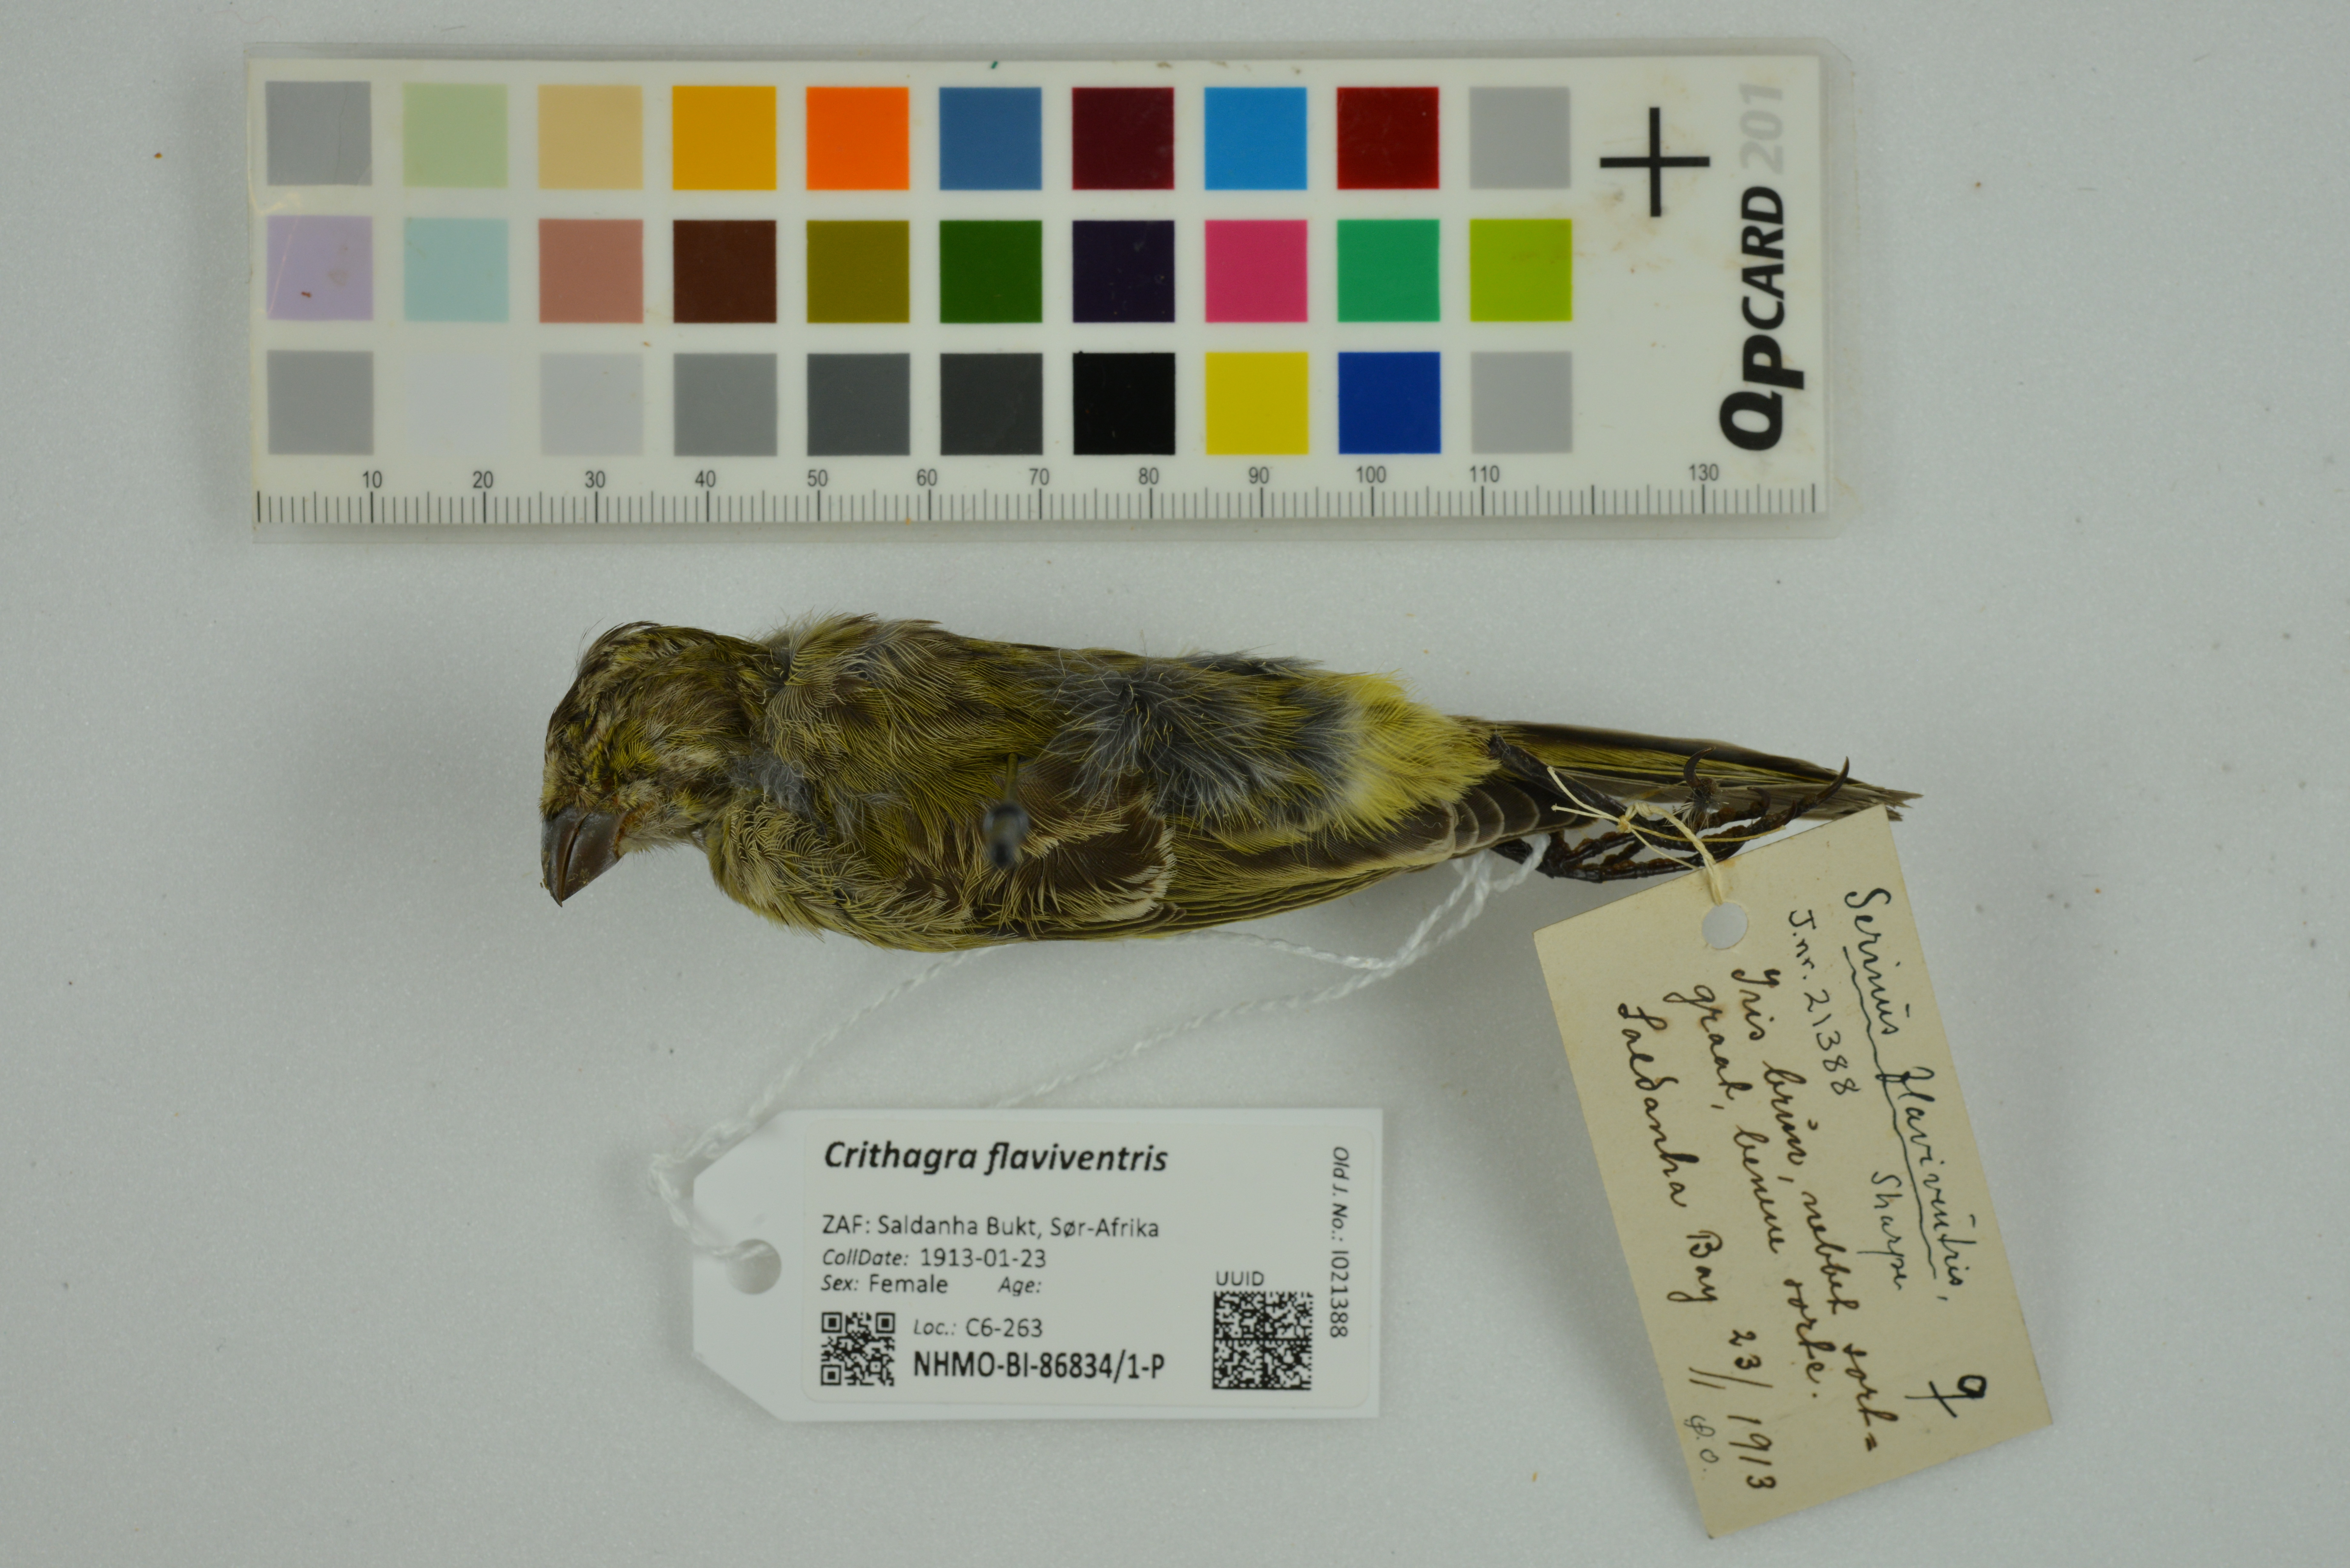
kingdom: Animalia
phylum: Chordata
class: Aves
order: Passeriformes
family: Fringillidae
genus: Crithagra
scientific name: Crithagra flaviventris
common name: Yellow canary
